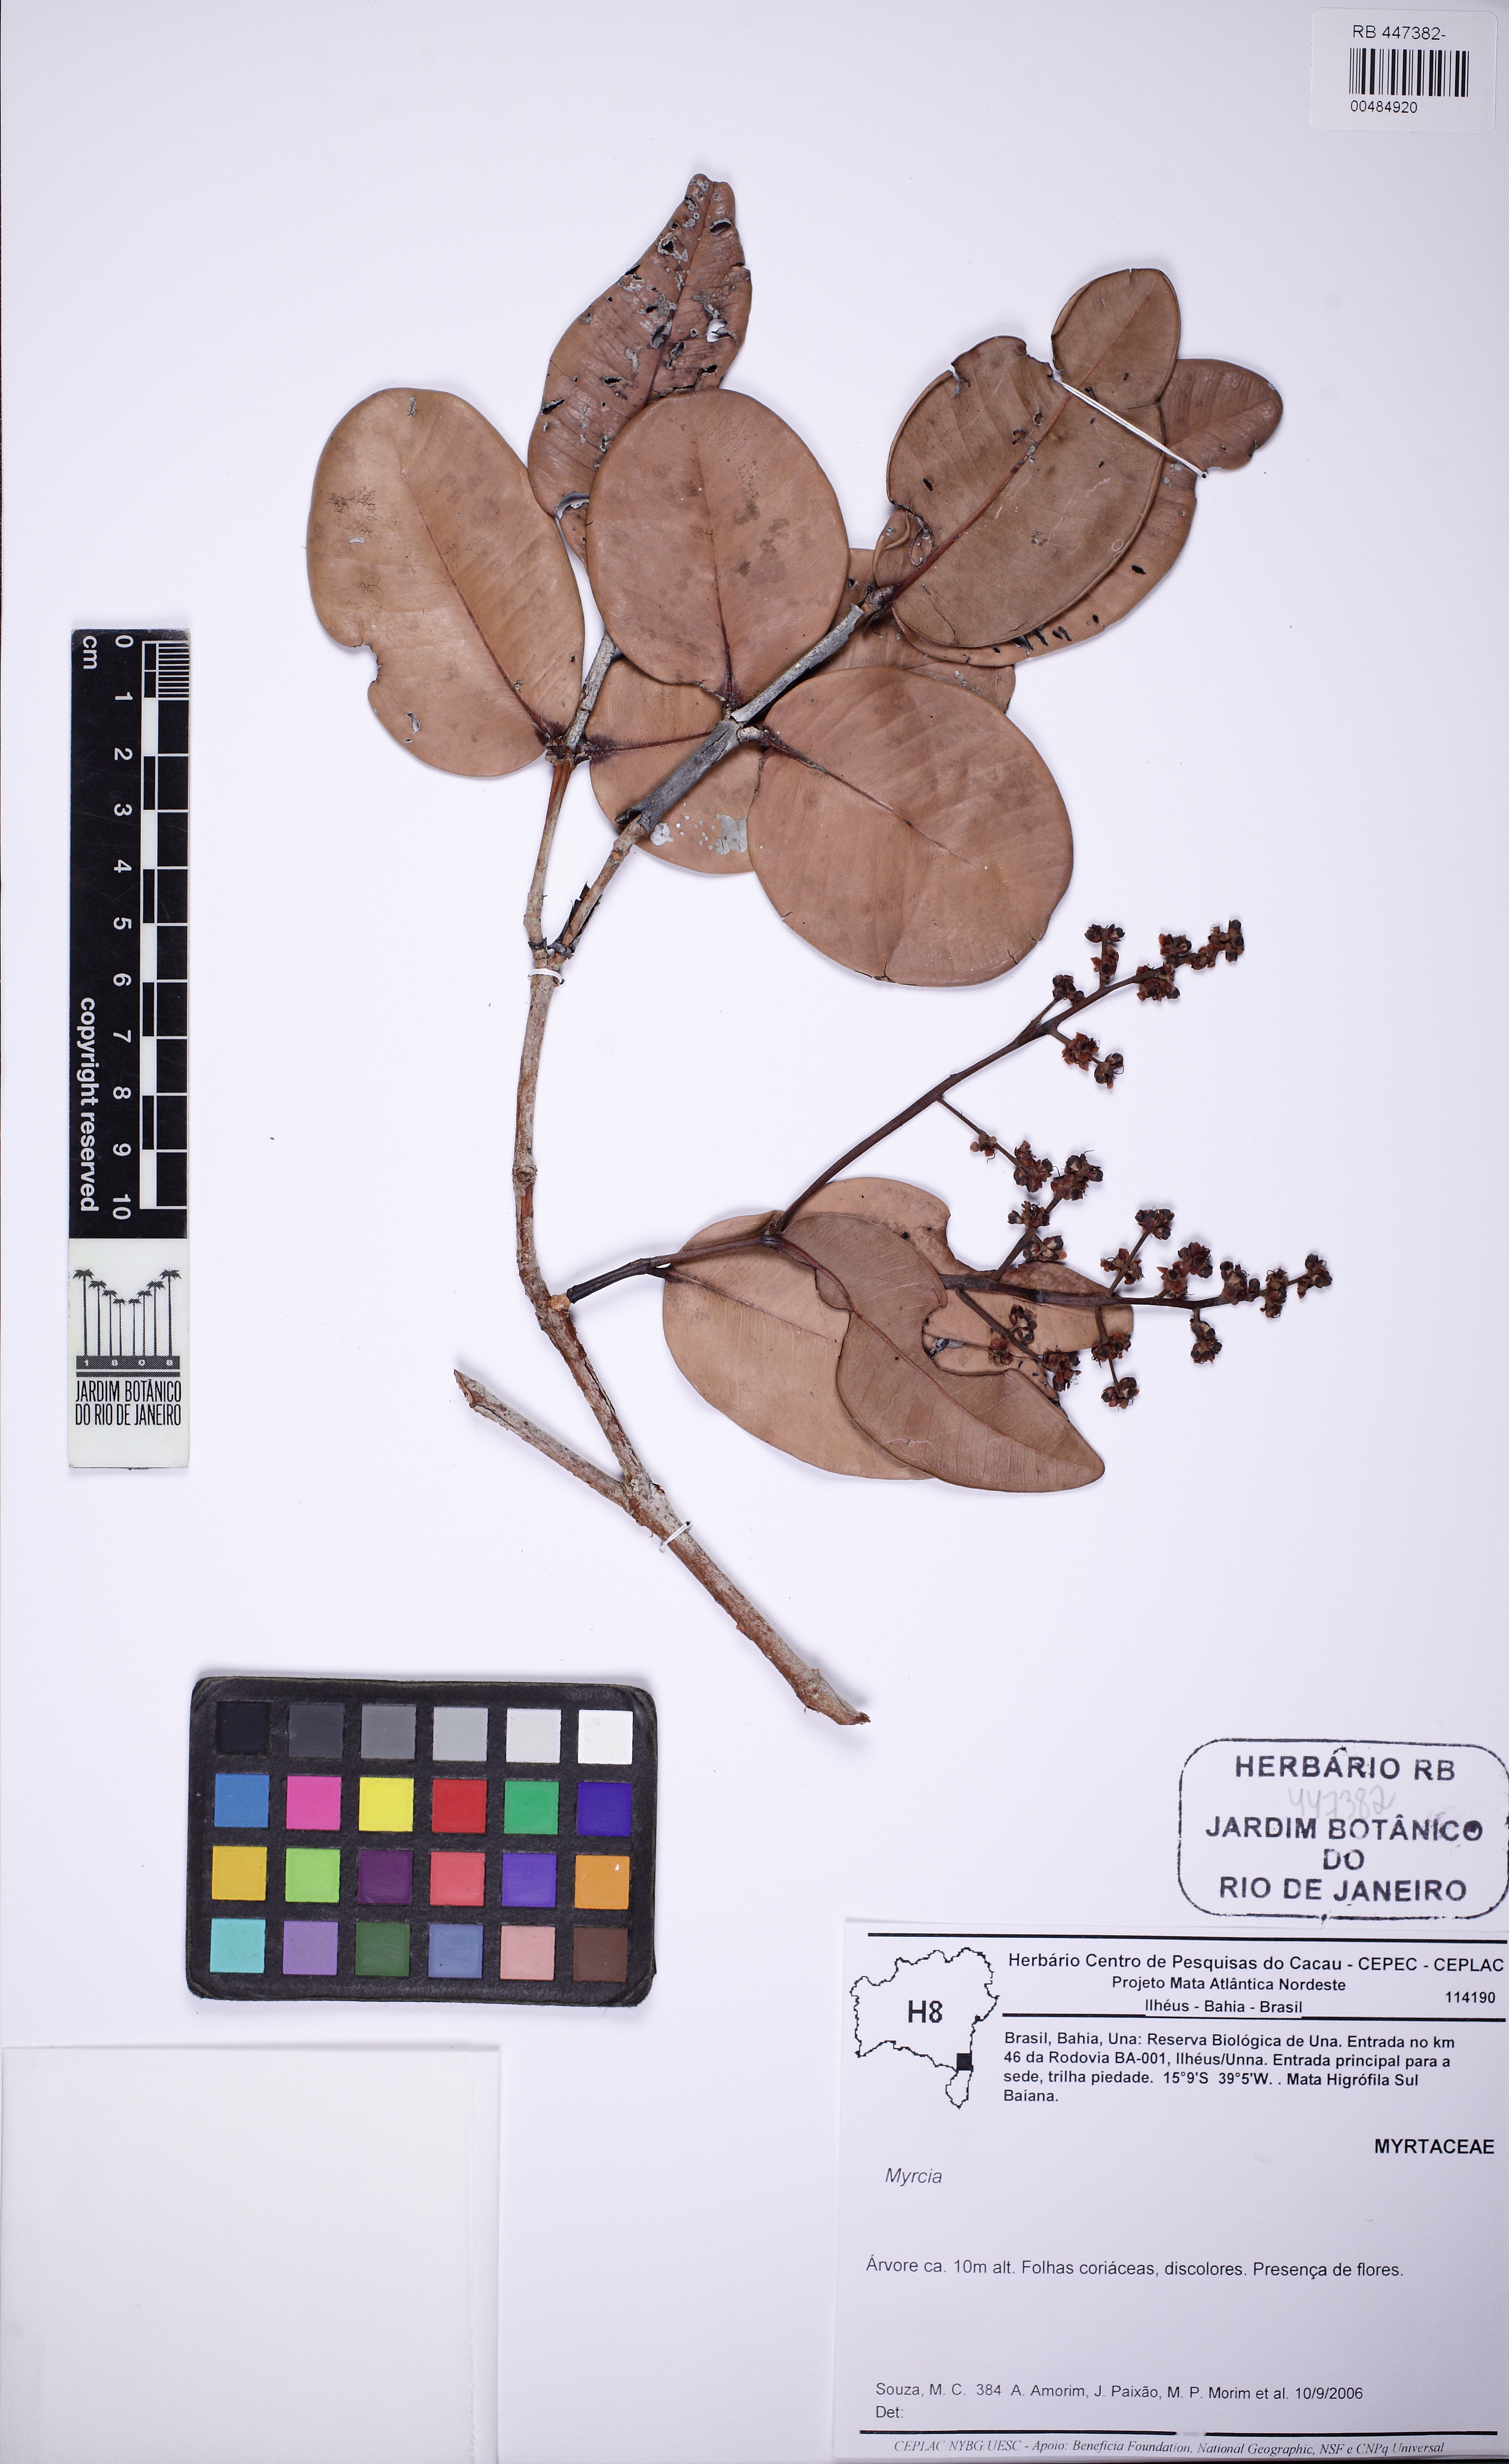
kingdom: Plantae
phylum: Tracheophyta
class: Magnoliopsida
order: Myrtales
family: Myrtaceae
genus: Eugenia
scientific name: Eugenia punicifolia
